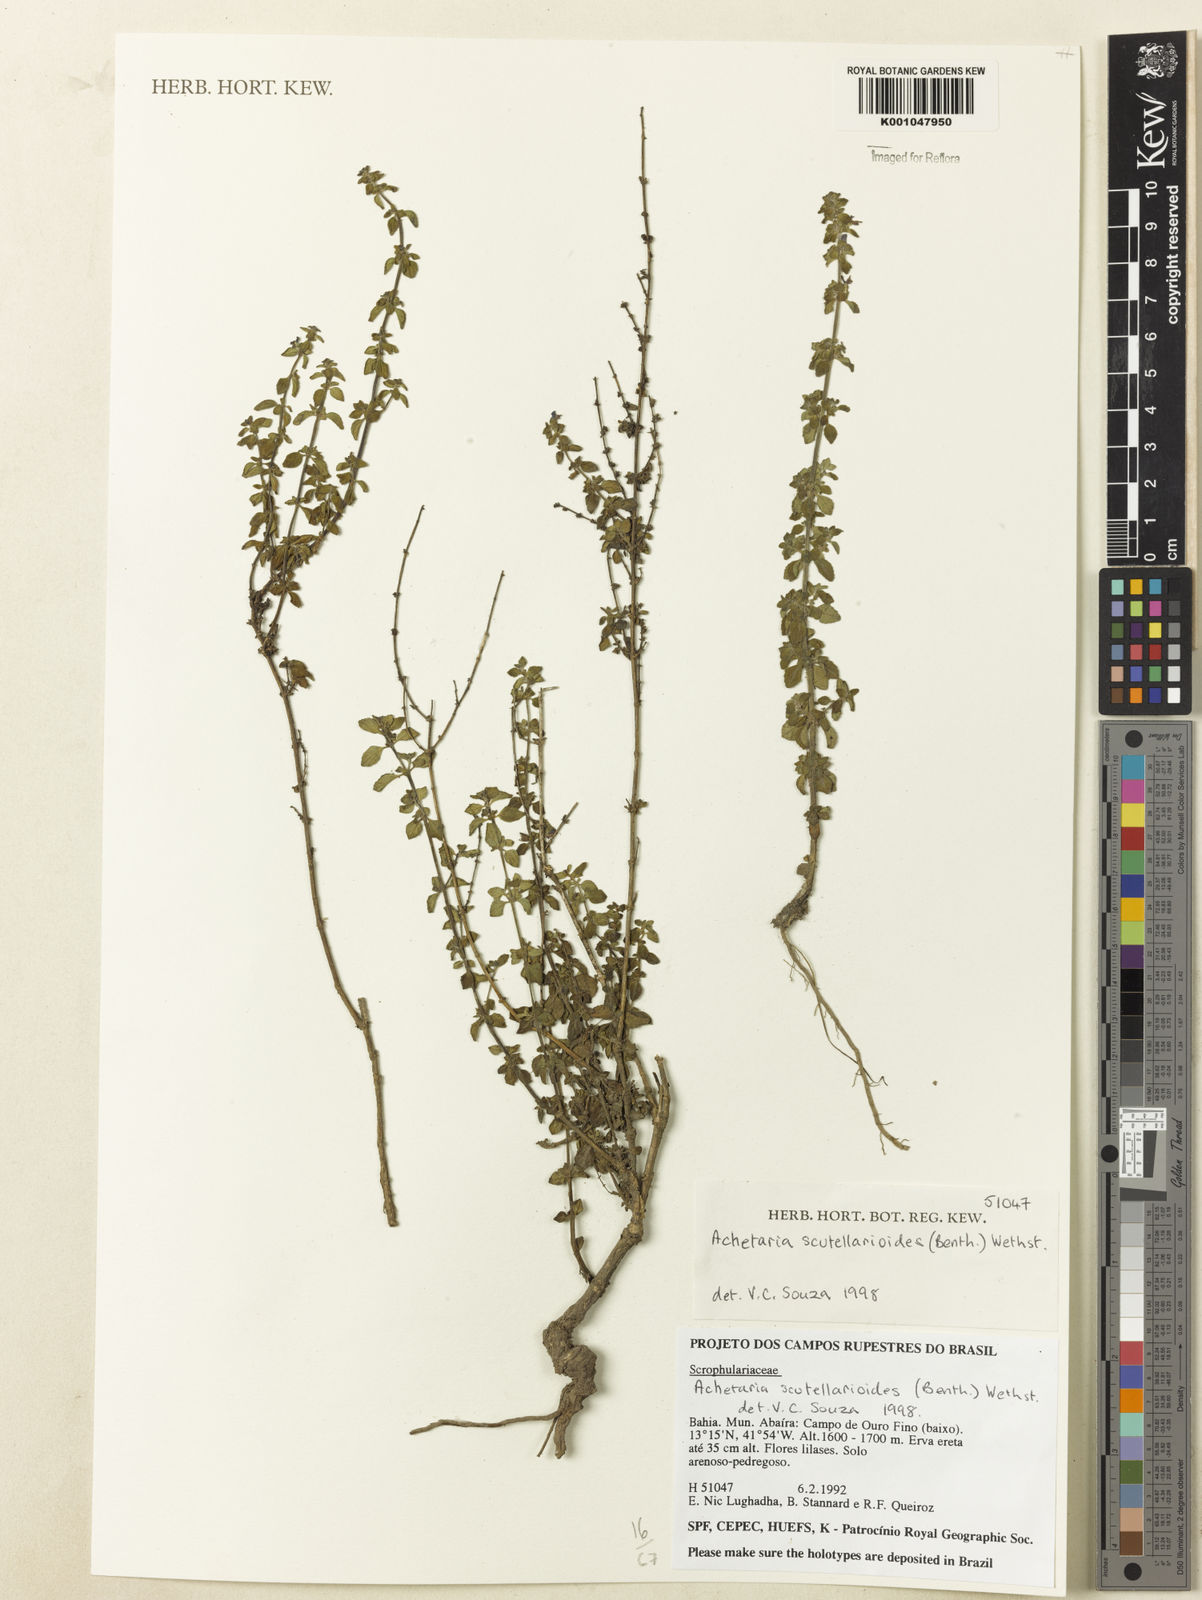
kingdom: Plantae
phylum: Tracheophyta
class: Magnoliopsida
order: Lamiales
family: Plantaginaceae
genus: Matourea
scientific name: Matourea scutellarioides
